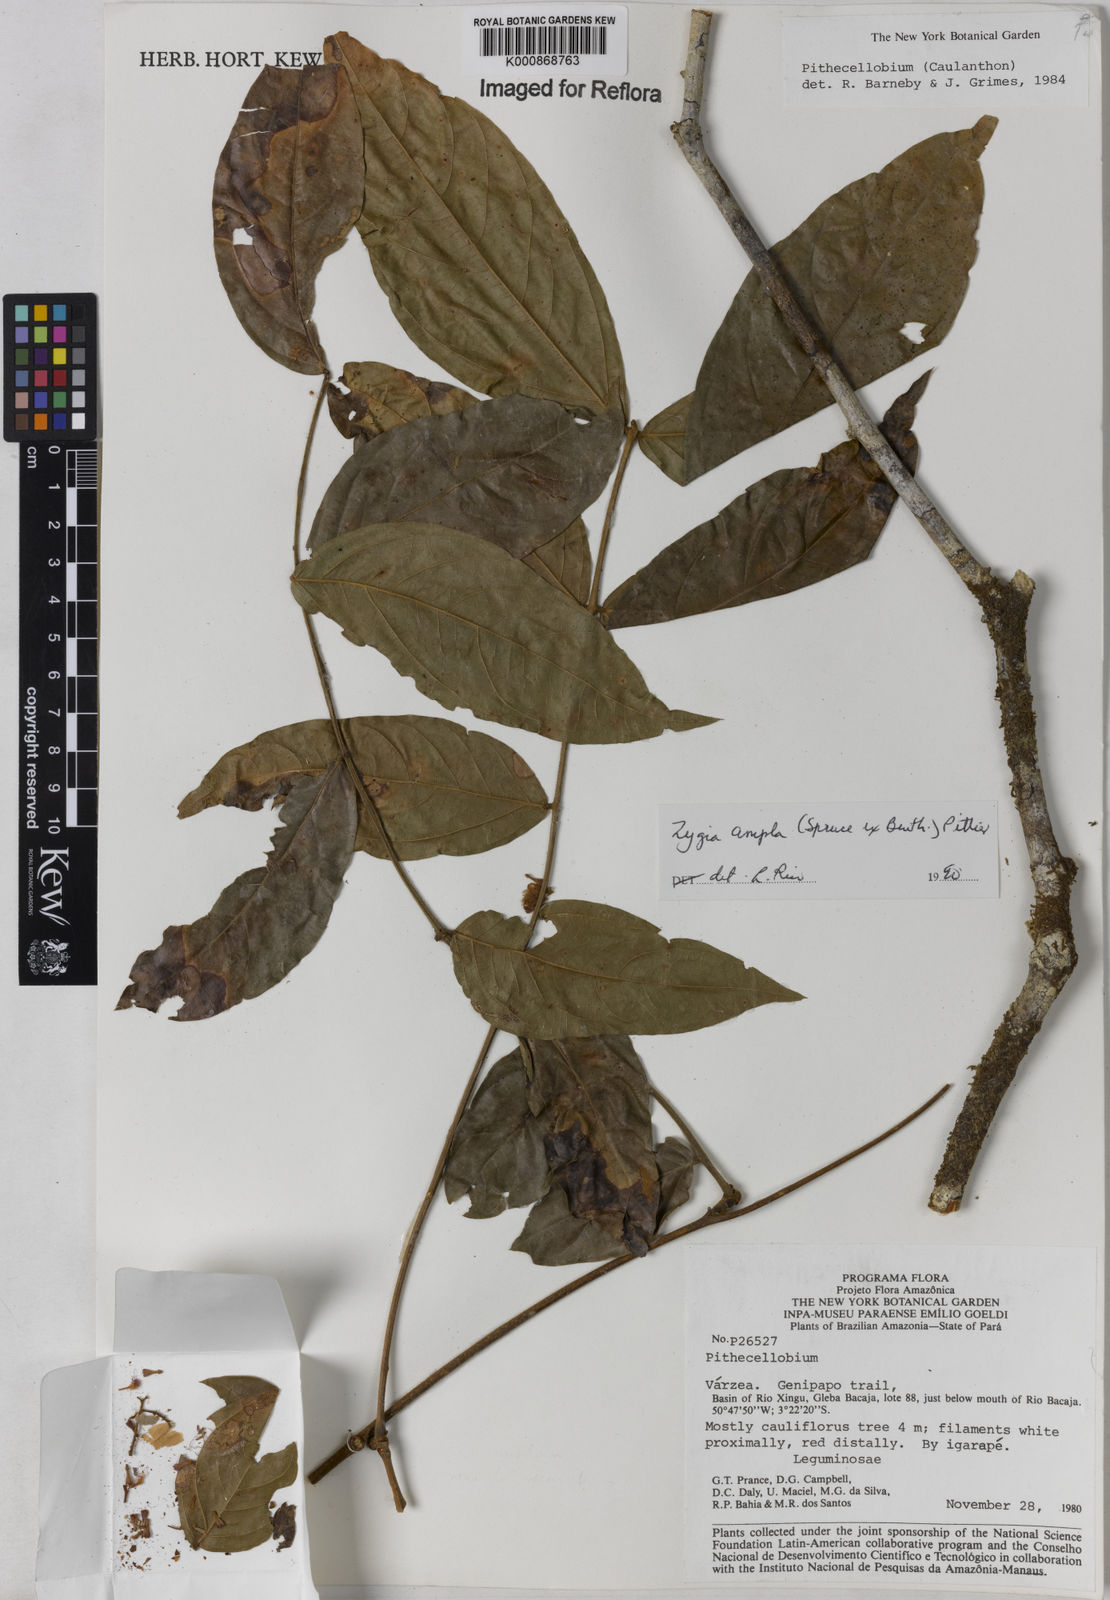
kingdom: Plantae
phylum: Tracheophyta
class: Magnoliopsida
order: Fabales
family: Fabaceae
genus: Zygia
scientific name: Zygia ampla
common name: Jarendeua de sapo
